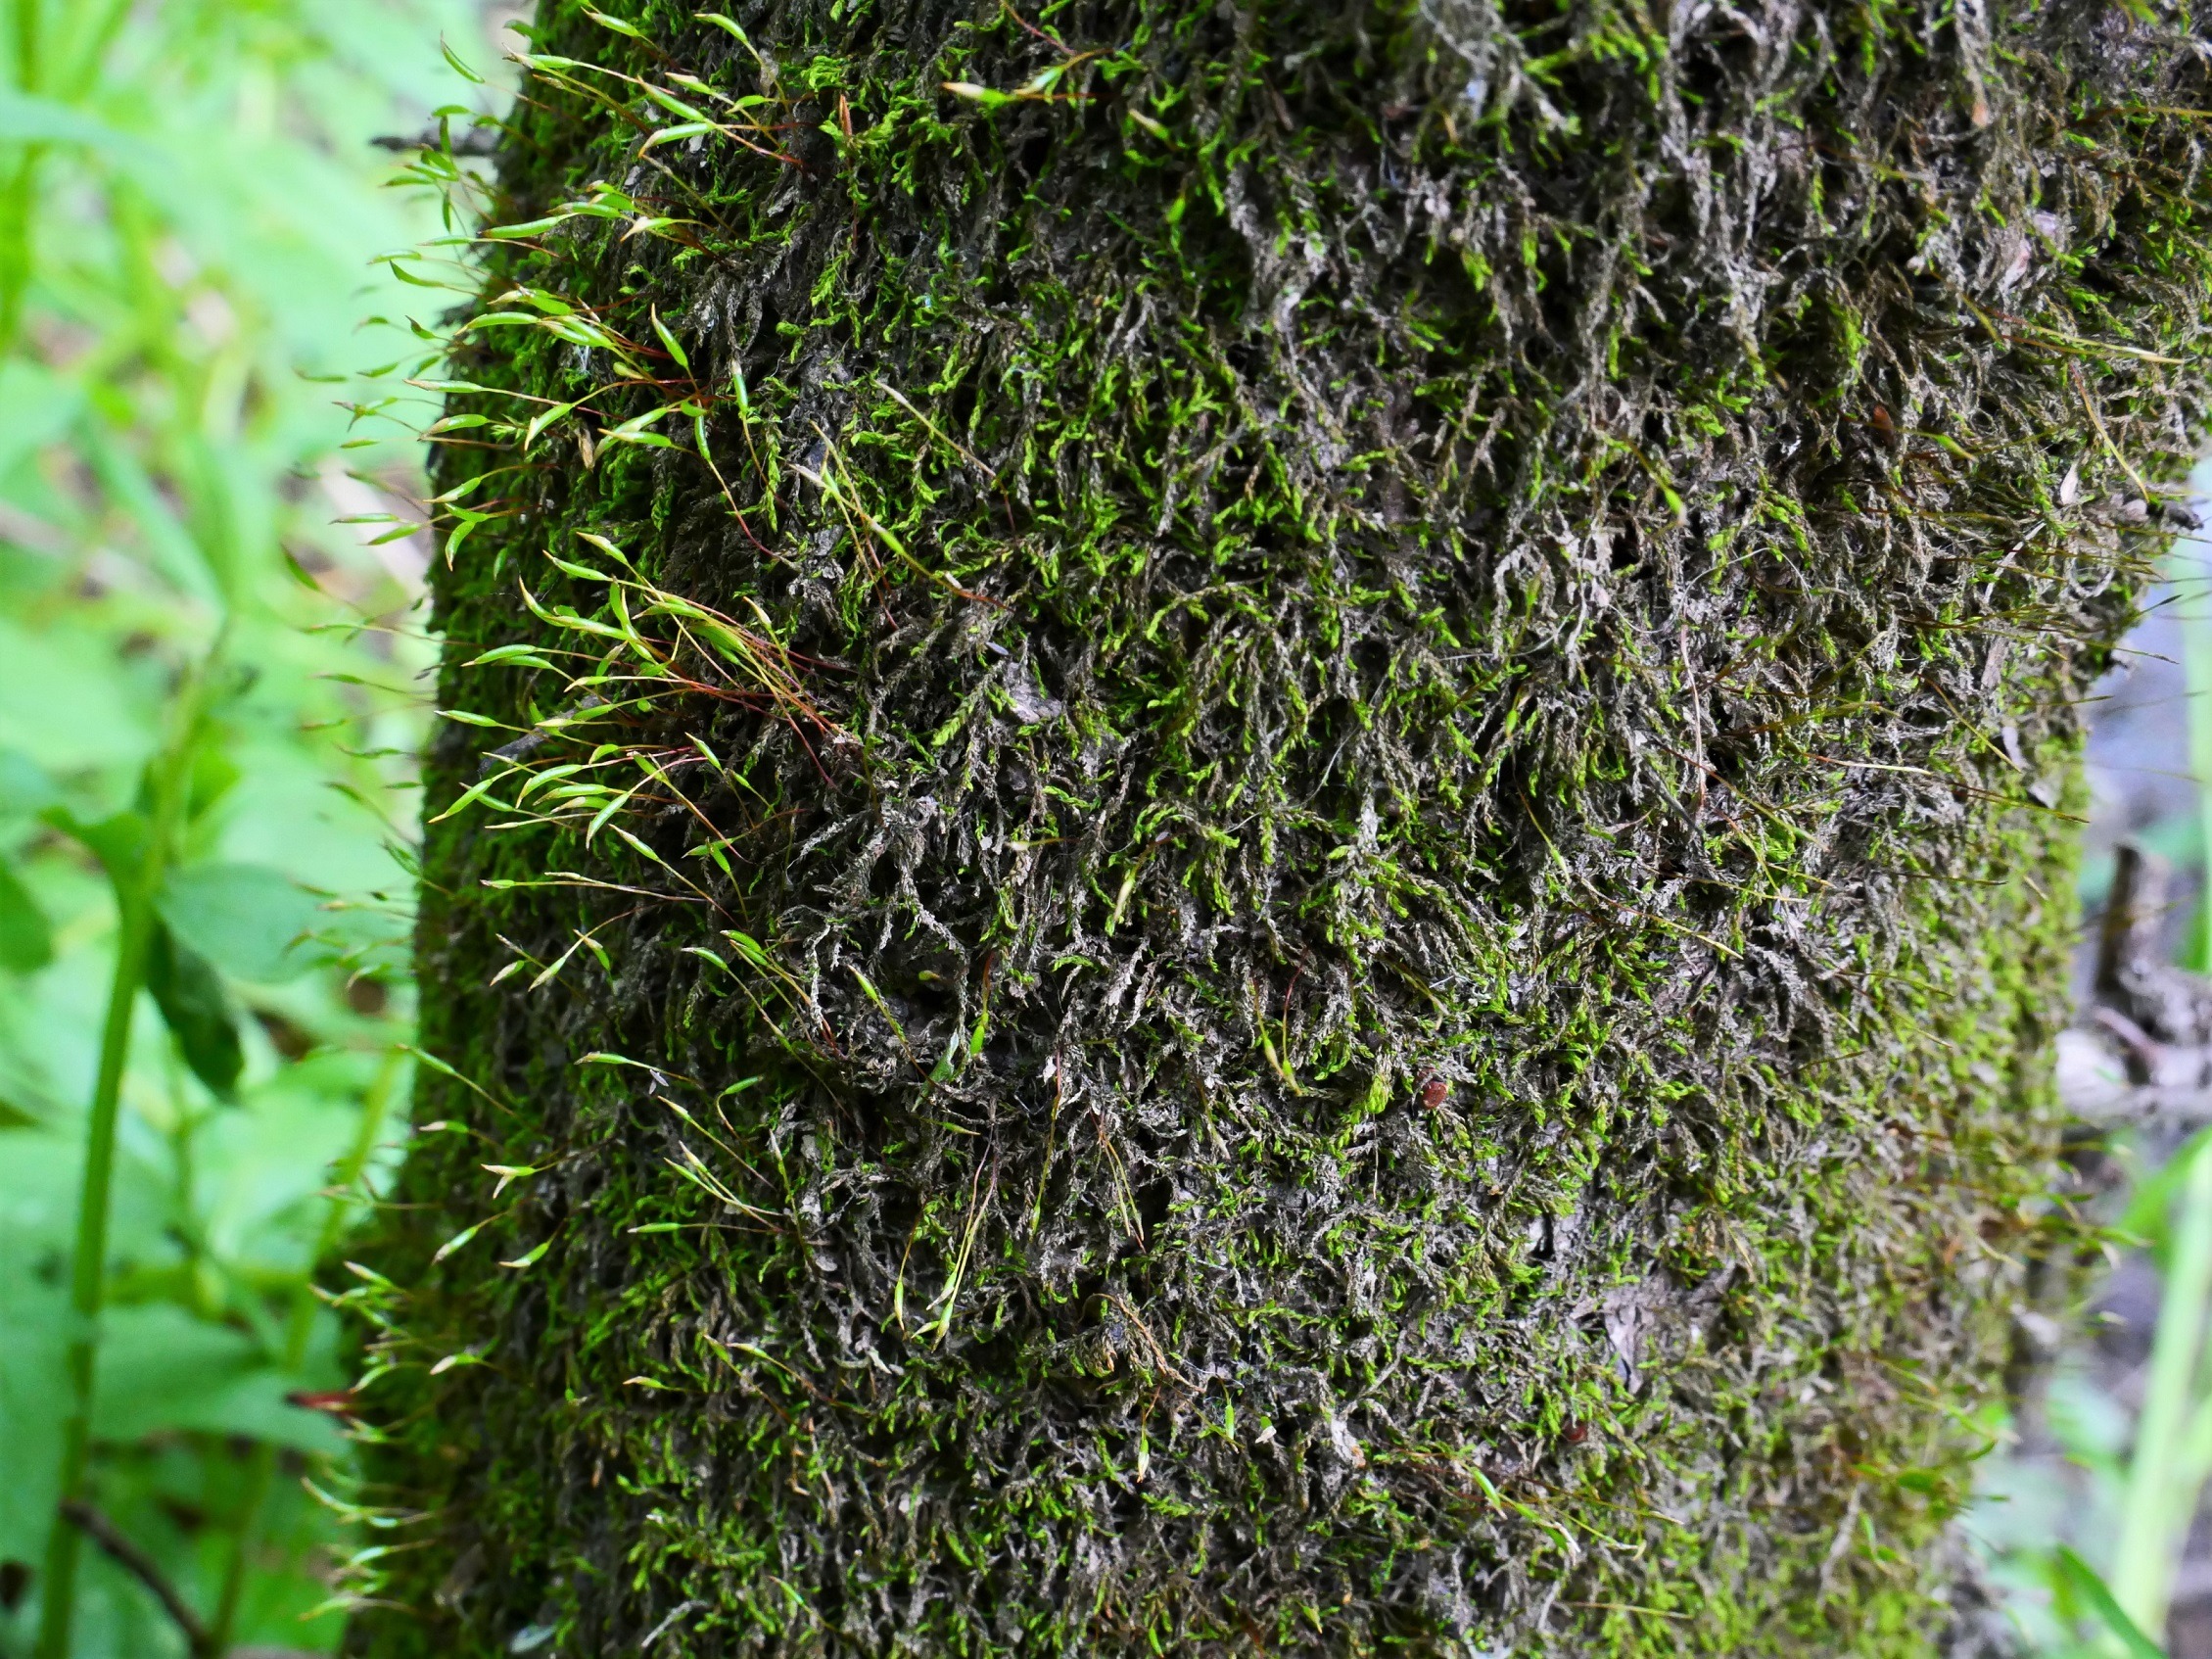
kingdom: Plantae
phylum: Bryophyta
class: Bryopsida
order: Hypnales
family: Leskeaceae
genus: Leskea
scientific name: Leskea polycarpa
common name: Mat lærkemos
